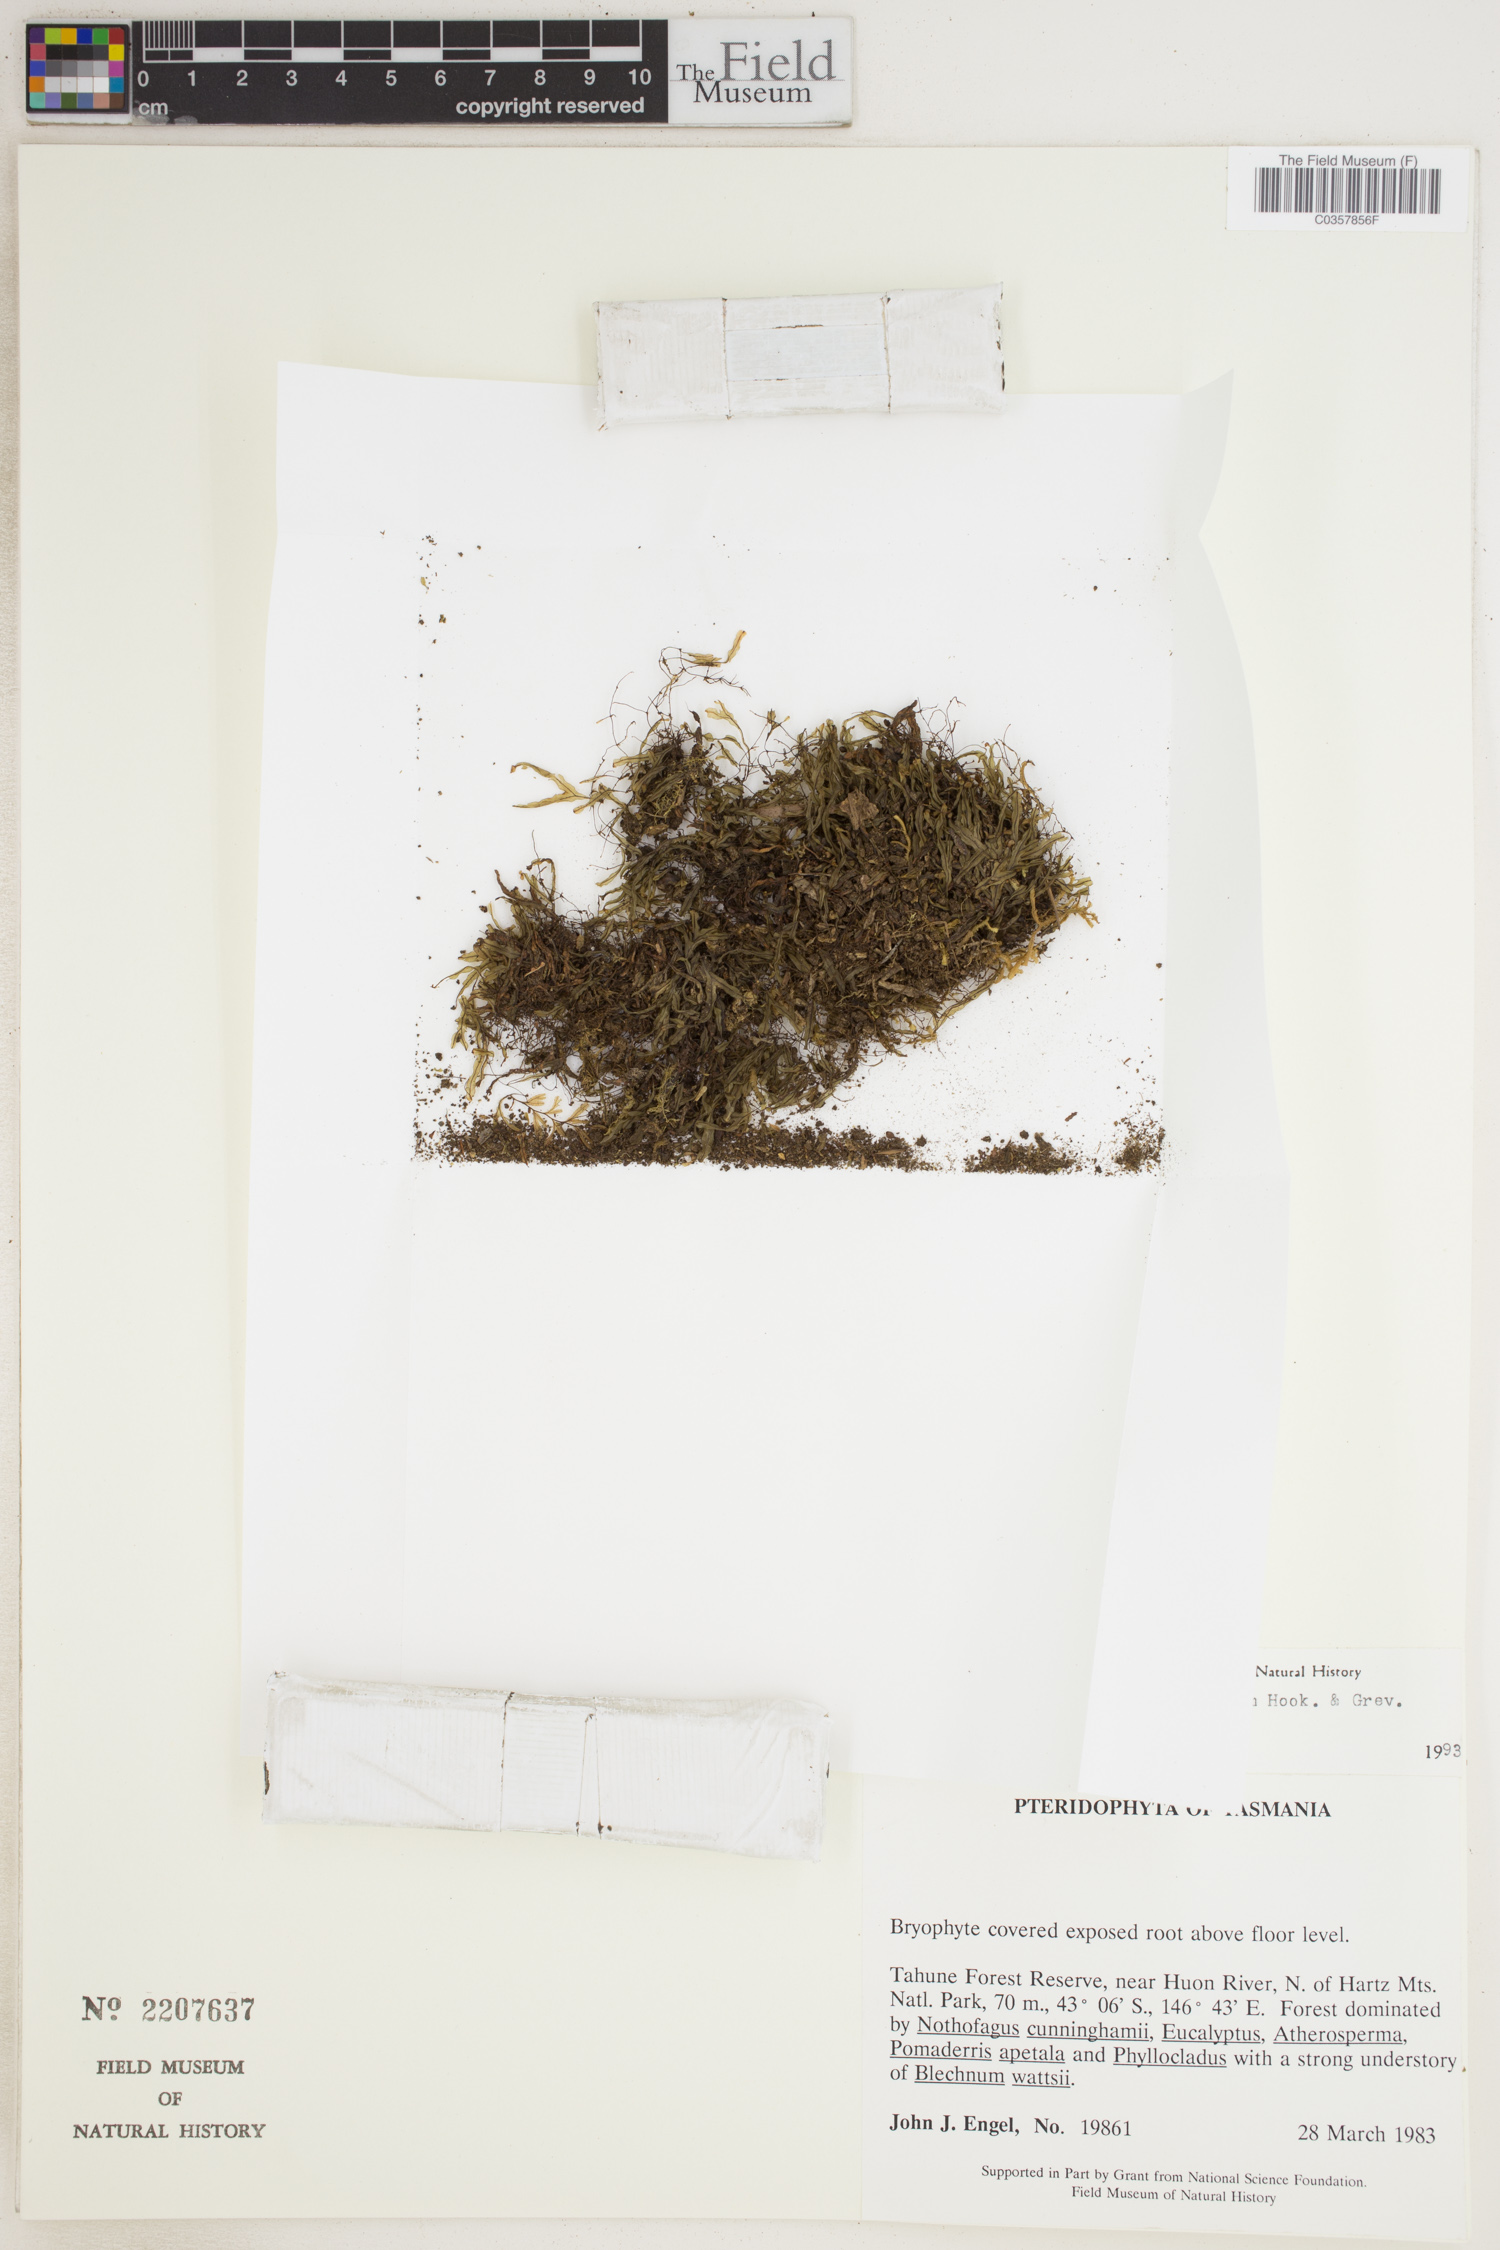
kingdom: Plantae
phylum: Tracheophyta
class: Polypodiopsida
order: Hymenophyllales
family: Hymenophyllaceae
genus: Hymenophyllum
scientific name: Hymenophyllum marginatum
